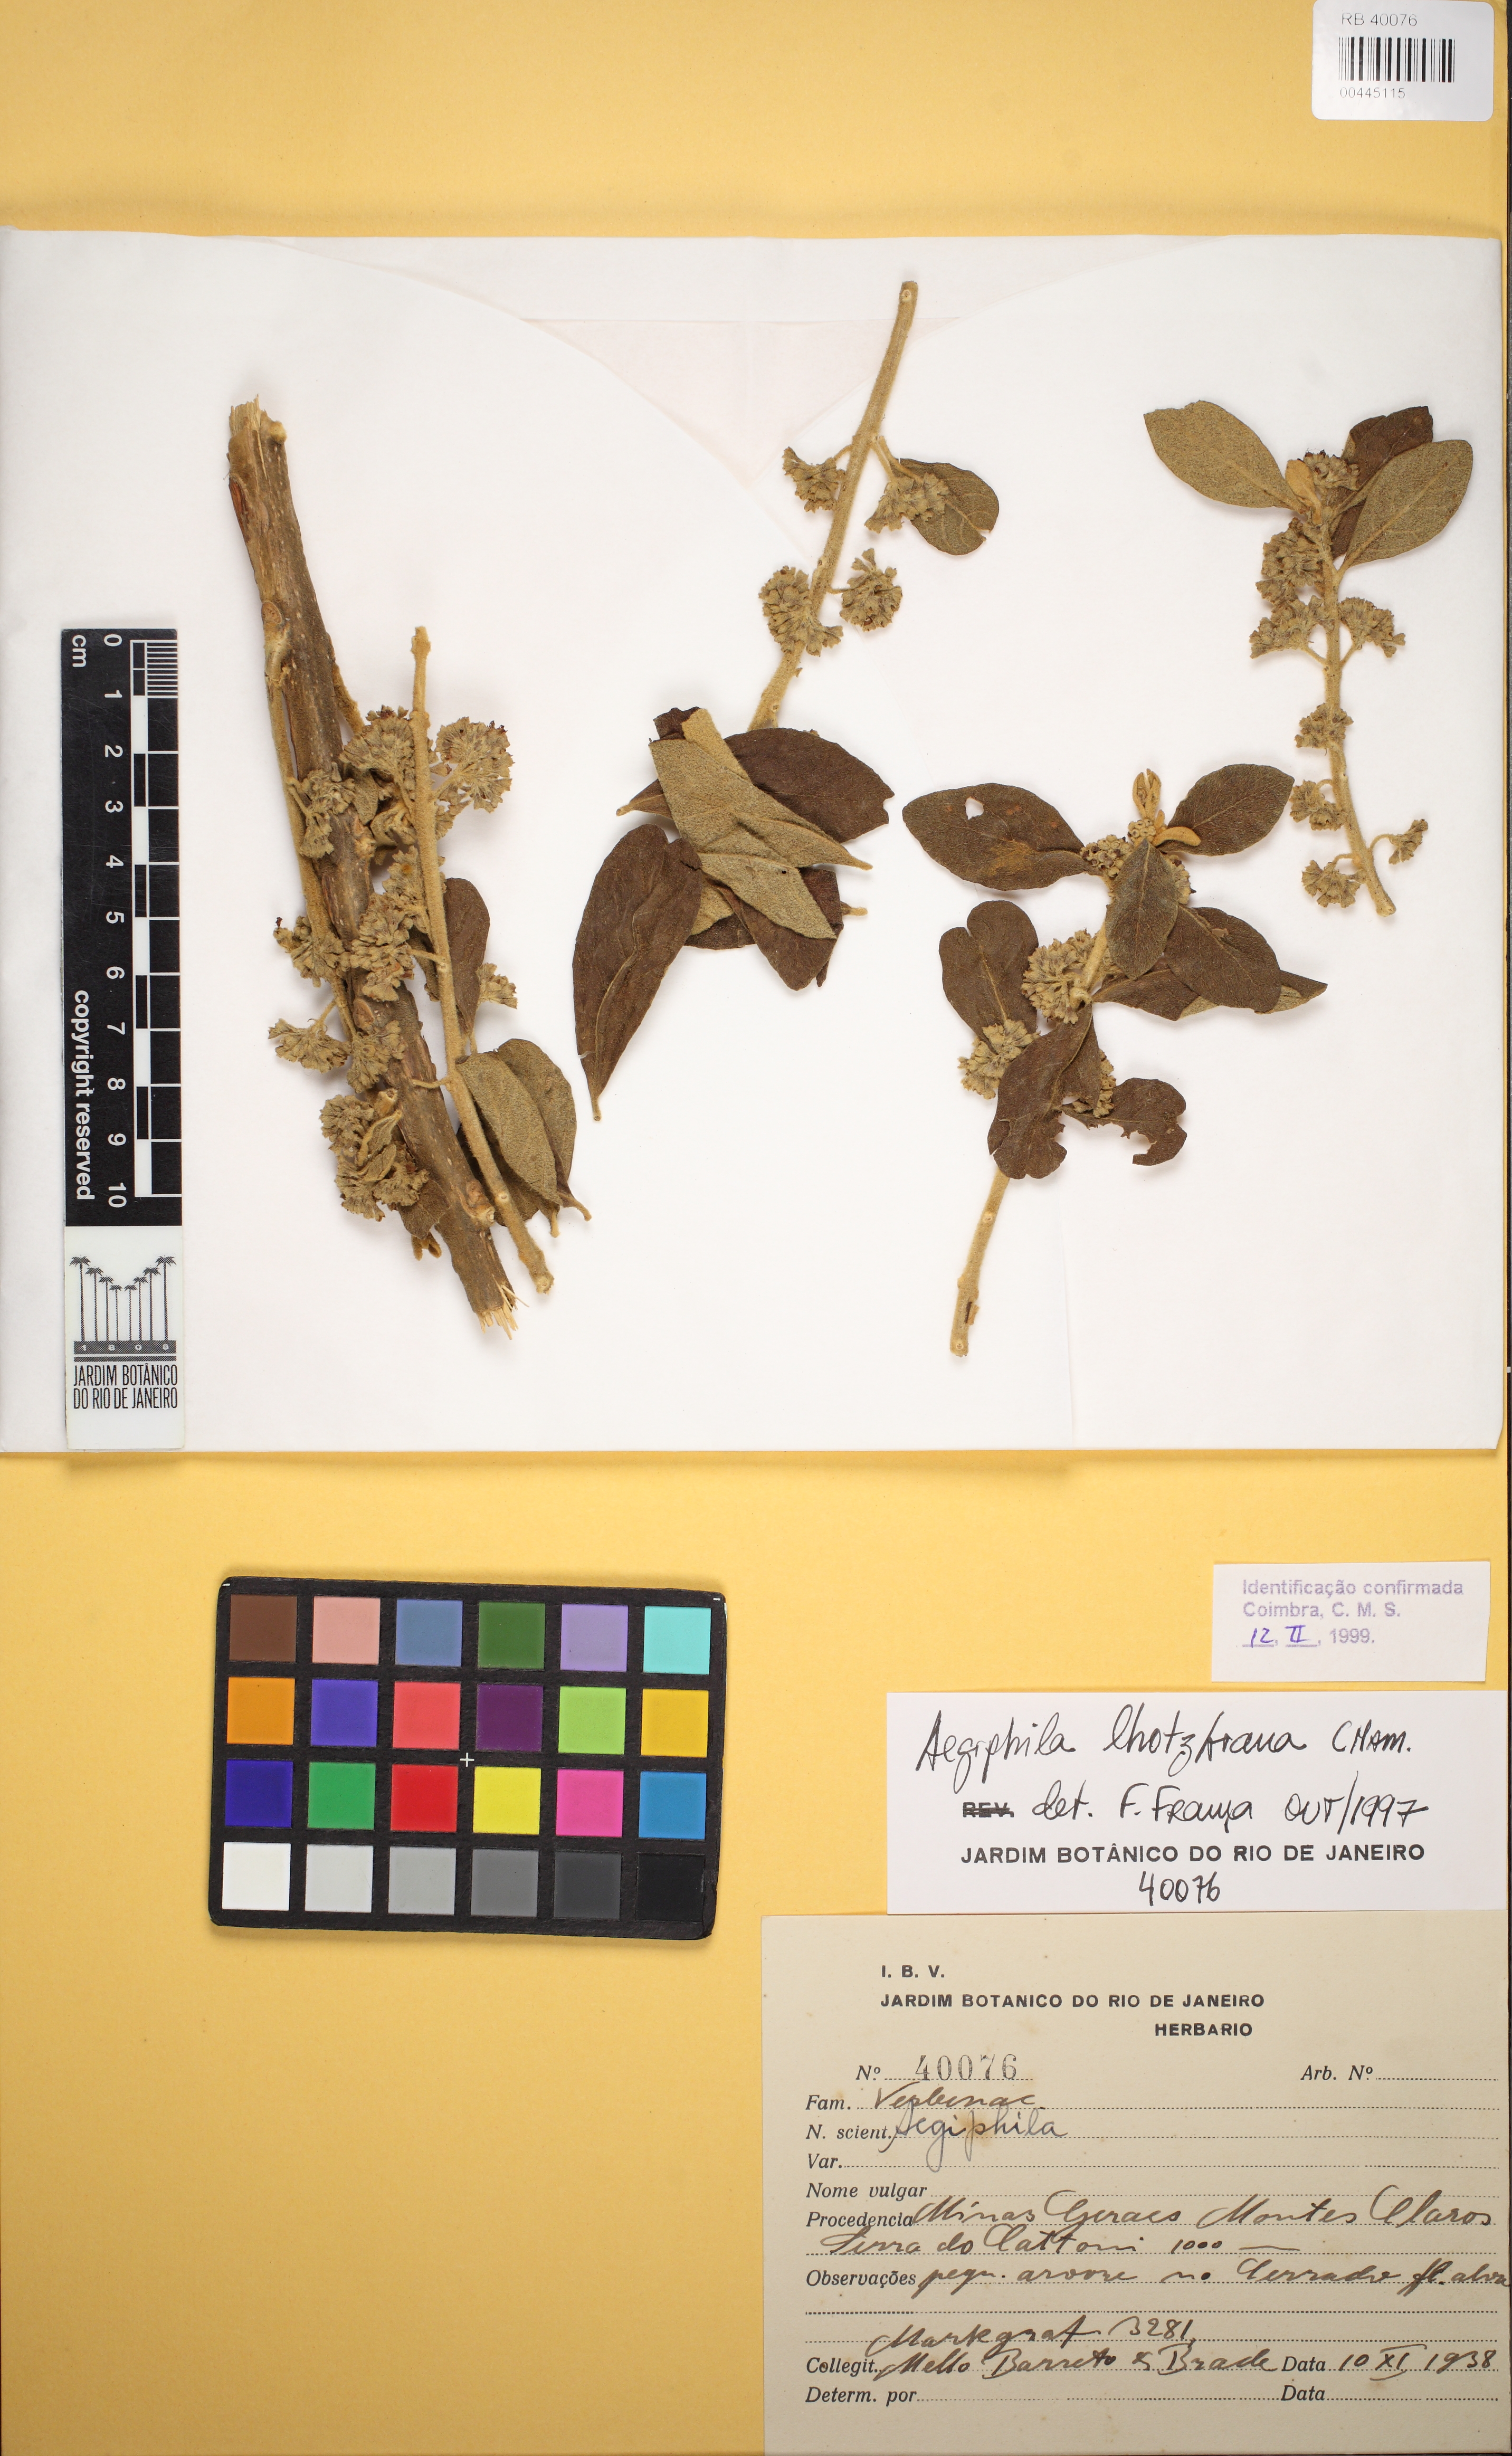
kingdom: Plantae
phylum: Tracheophyta
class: Magnoliopsida
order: Lamiales
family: Lamiaceae
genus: Aegiphila
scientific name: Aegiphila lhotskiana
